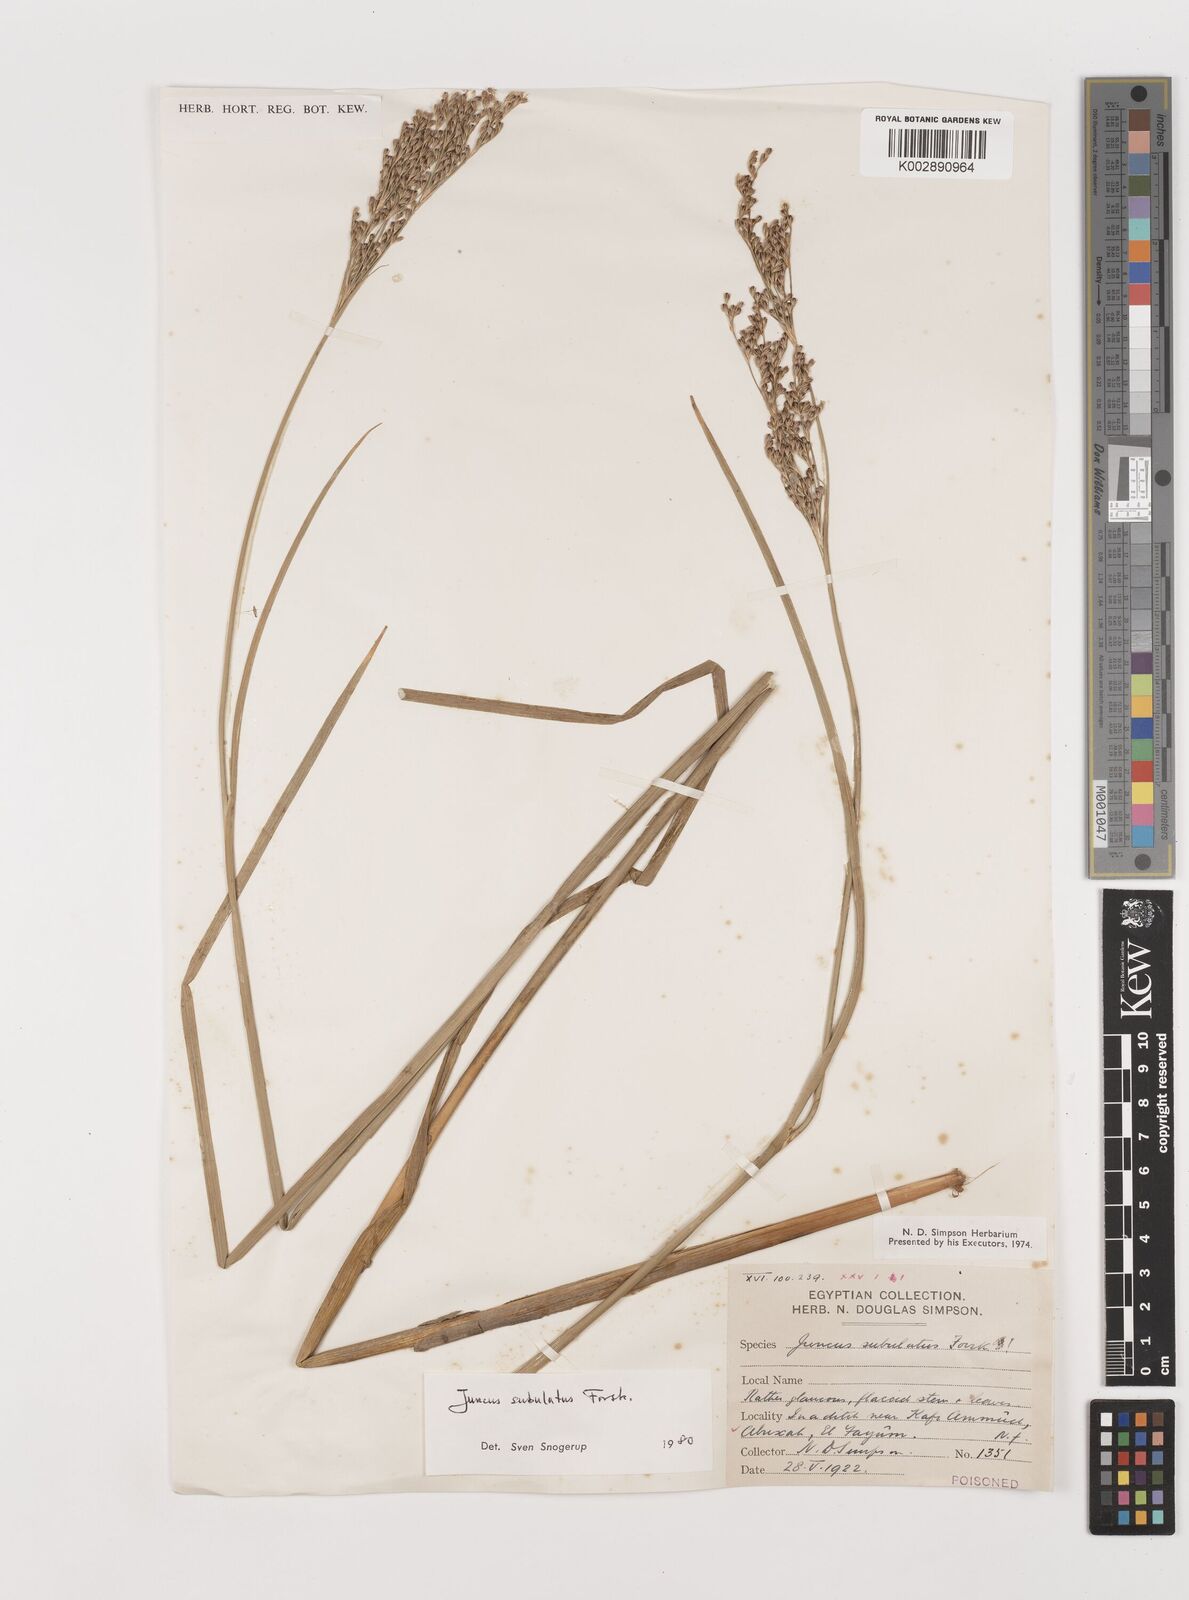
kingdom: Plantae
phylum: Tracheophyta
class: Liliopsida
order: Poales
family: Juncaceae
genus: Juncus
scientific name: Juncus subulatus
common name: Somerset rush
